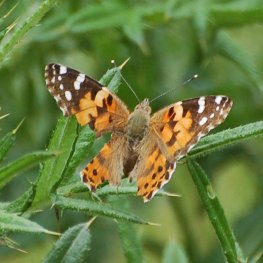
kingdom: Animalia
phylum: Arthropoda
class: Insecta
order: Lepidoptera
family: Nymphalidae
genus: Vanessa
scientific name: Vanessa cardui
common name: Painted Lady
